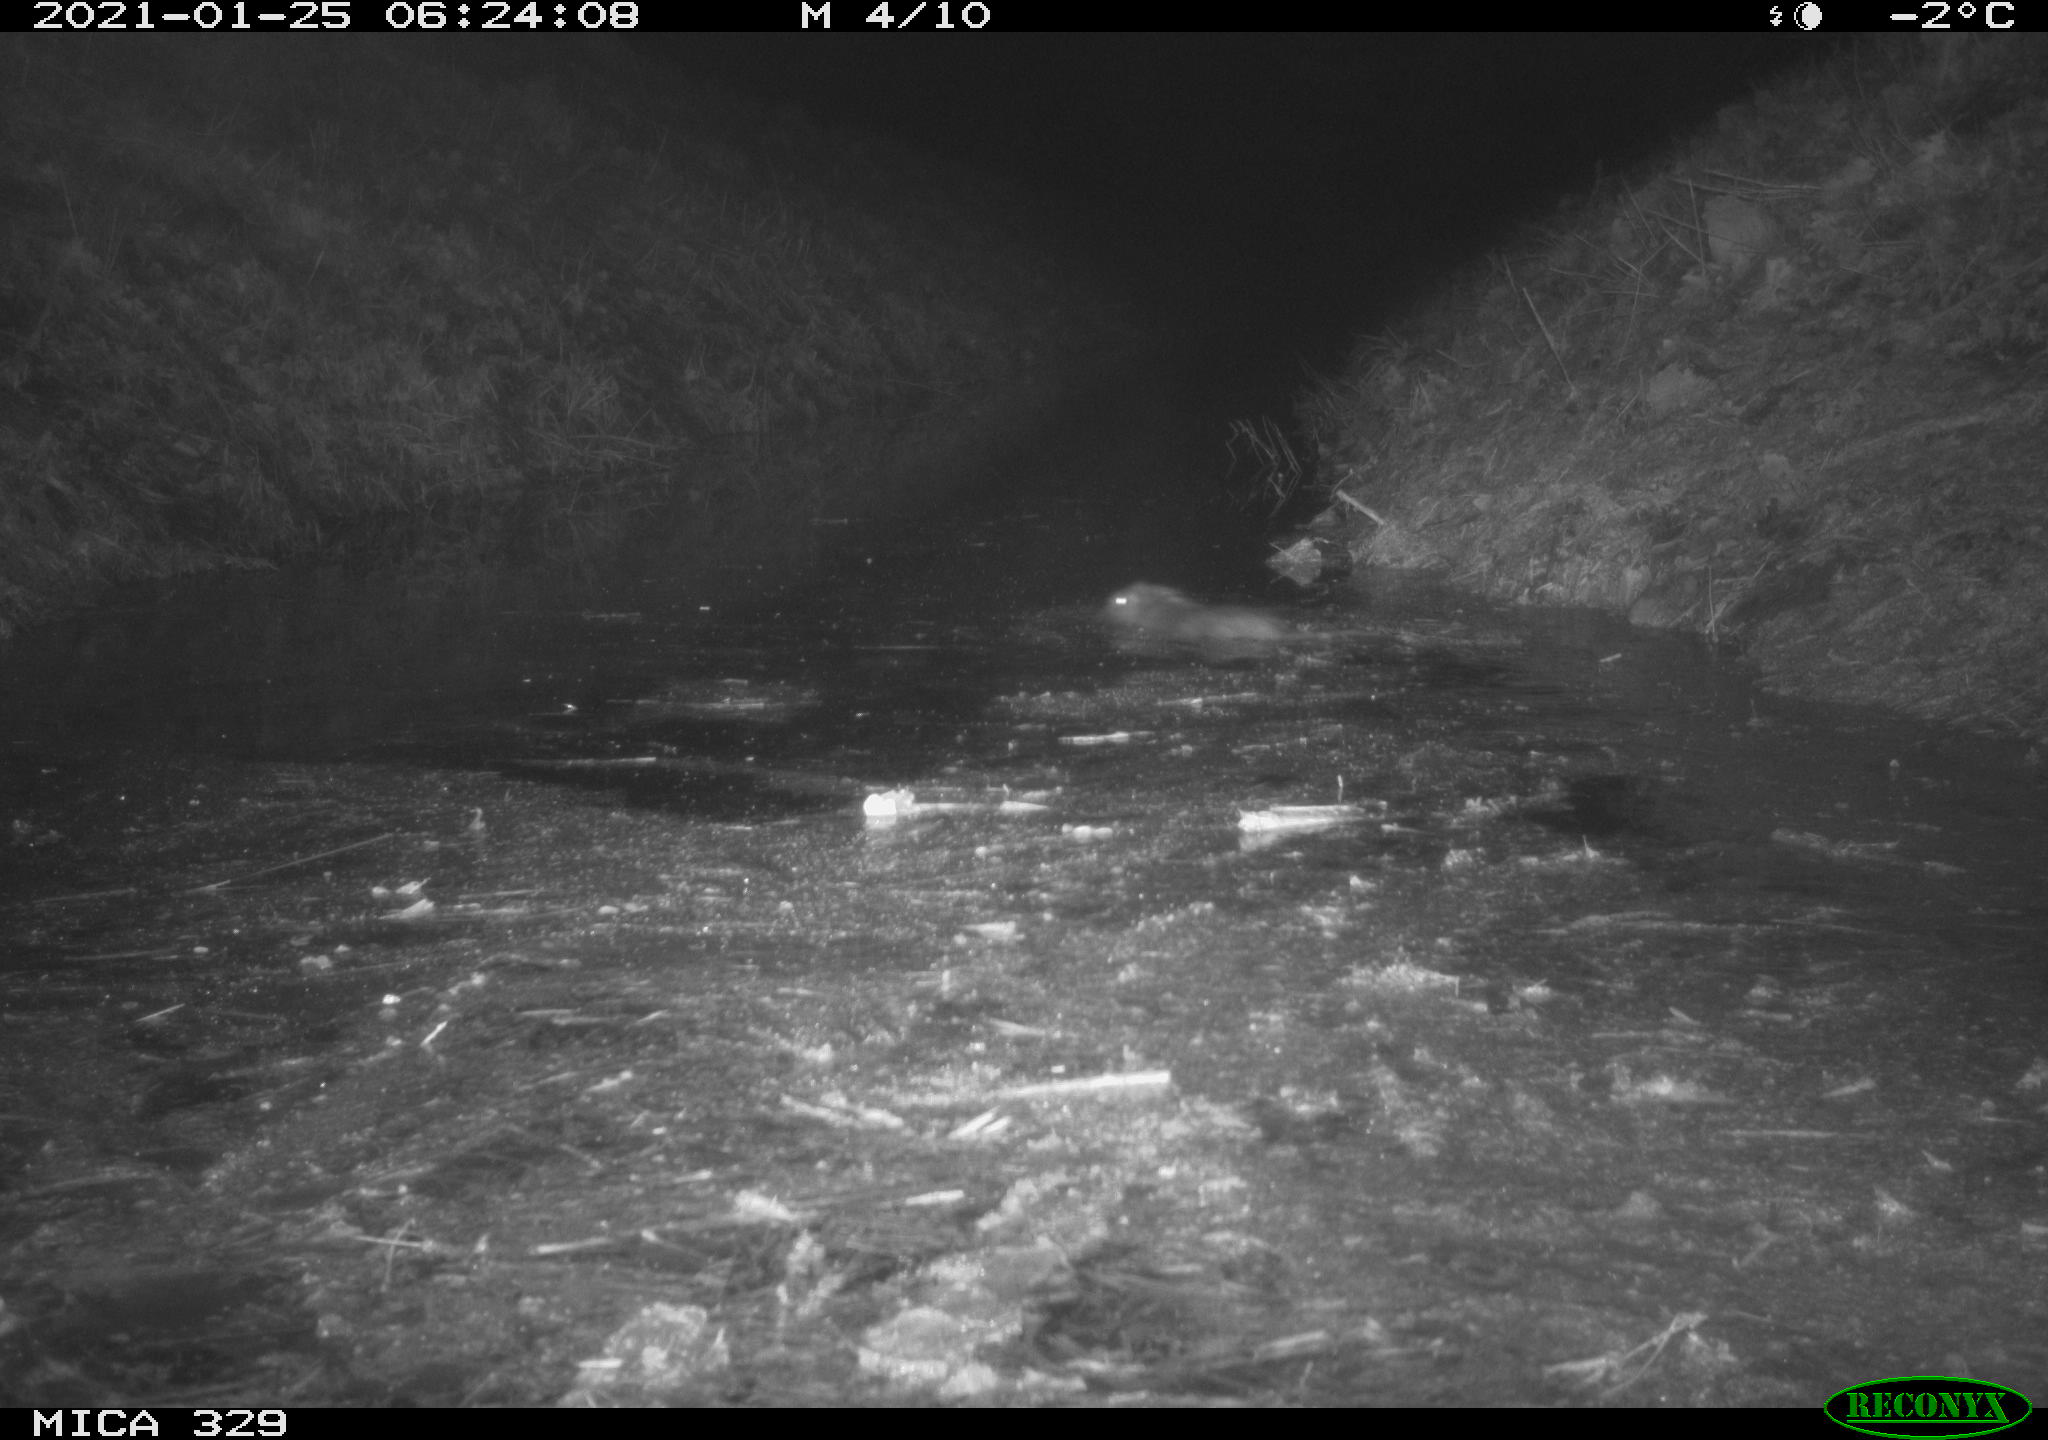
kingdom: Animalia
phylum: Chordata
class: Mammalia
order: Rodentia
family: Cricetidae
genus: Ondatra
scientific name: Ondatra zibethicus
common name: Muskrat
